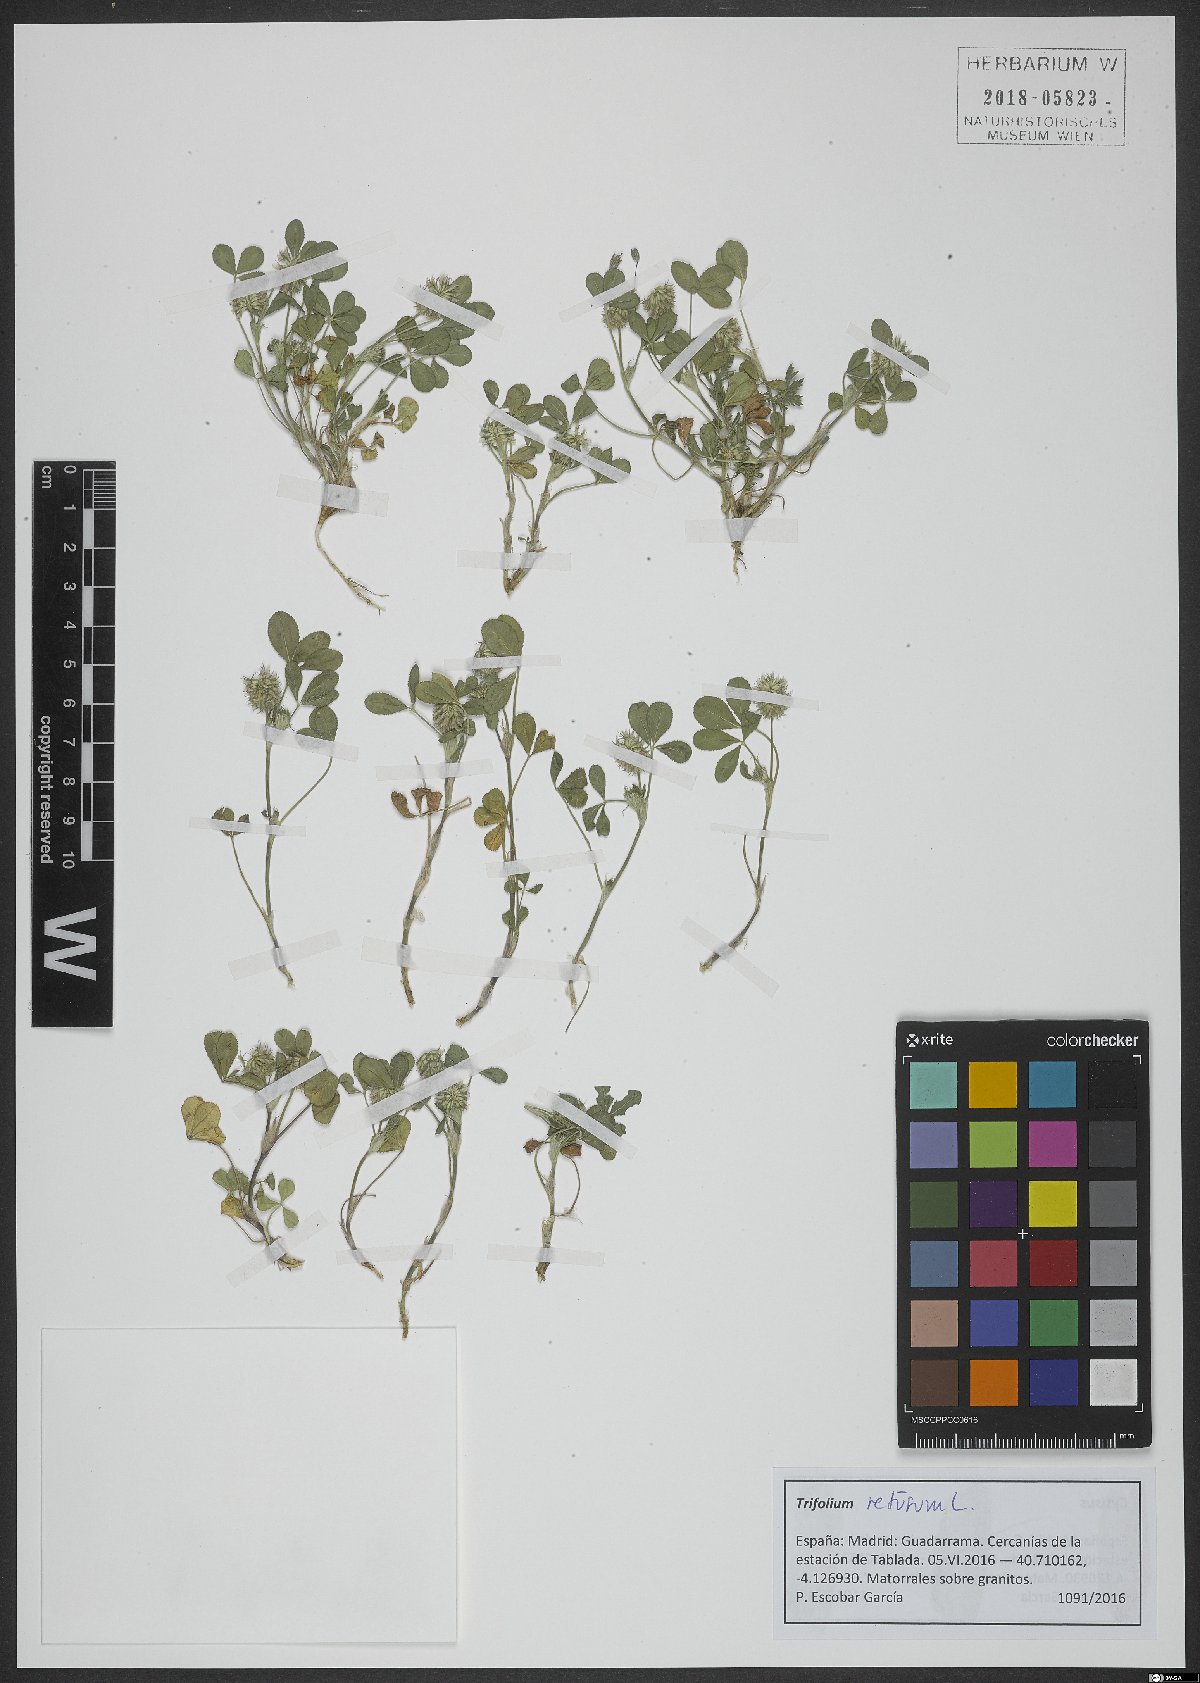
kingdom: Plantae
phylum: Tracheophyta
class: Magnoliopsida
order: Fabales
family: Fabaceae
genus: Trifolium
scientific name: Trifolium retusum
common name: Teasel clover
